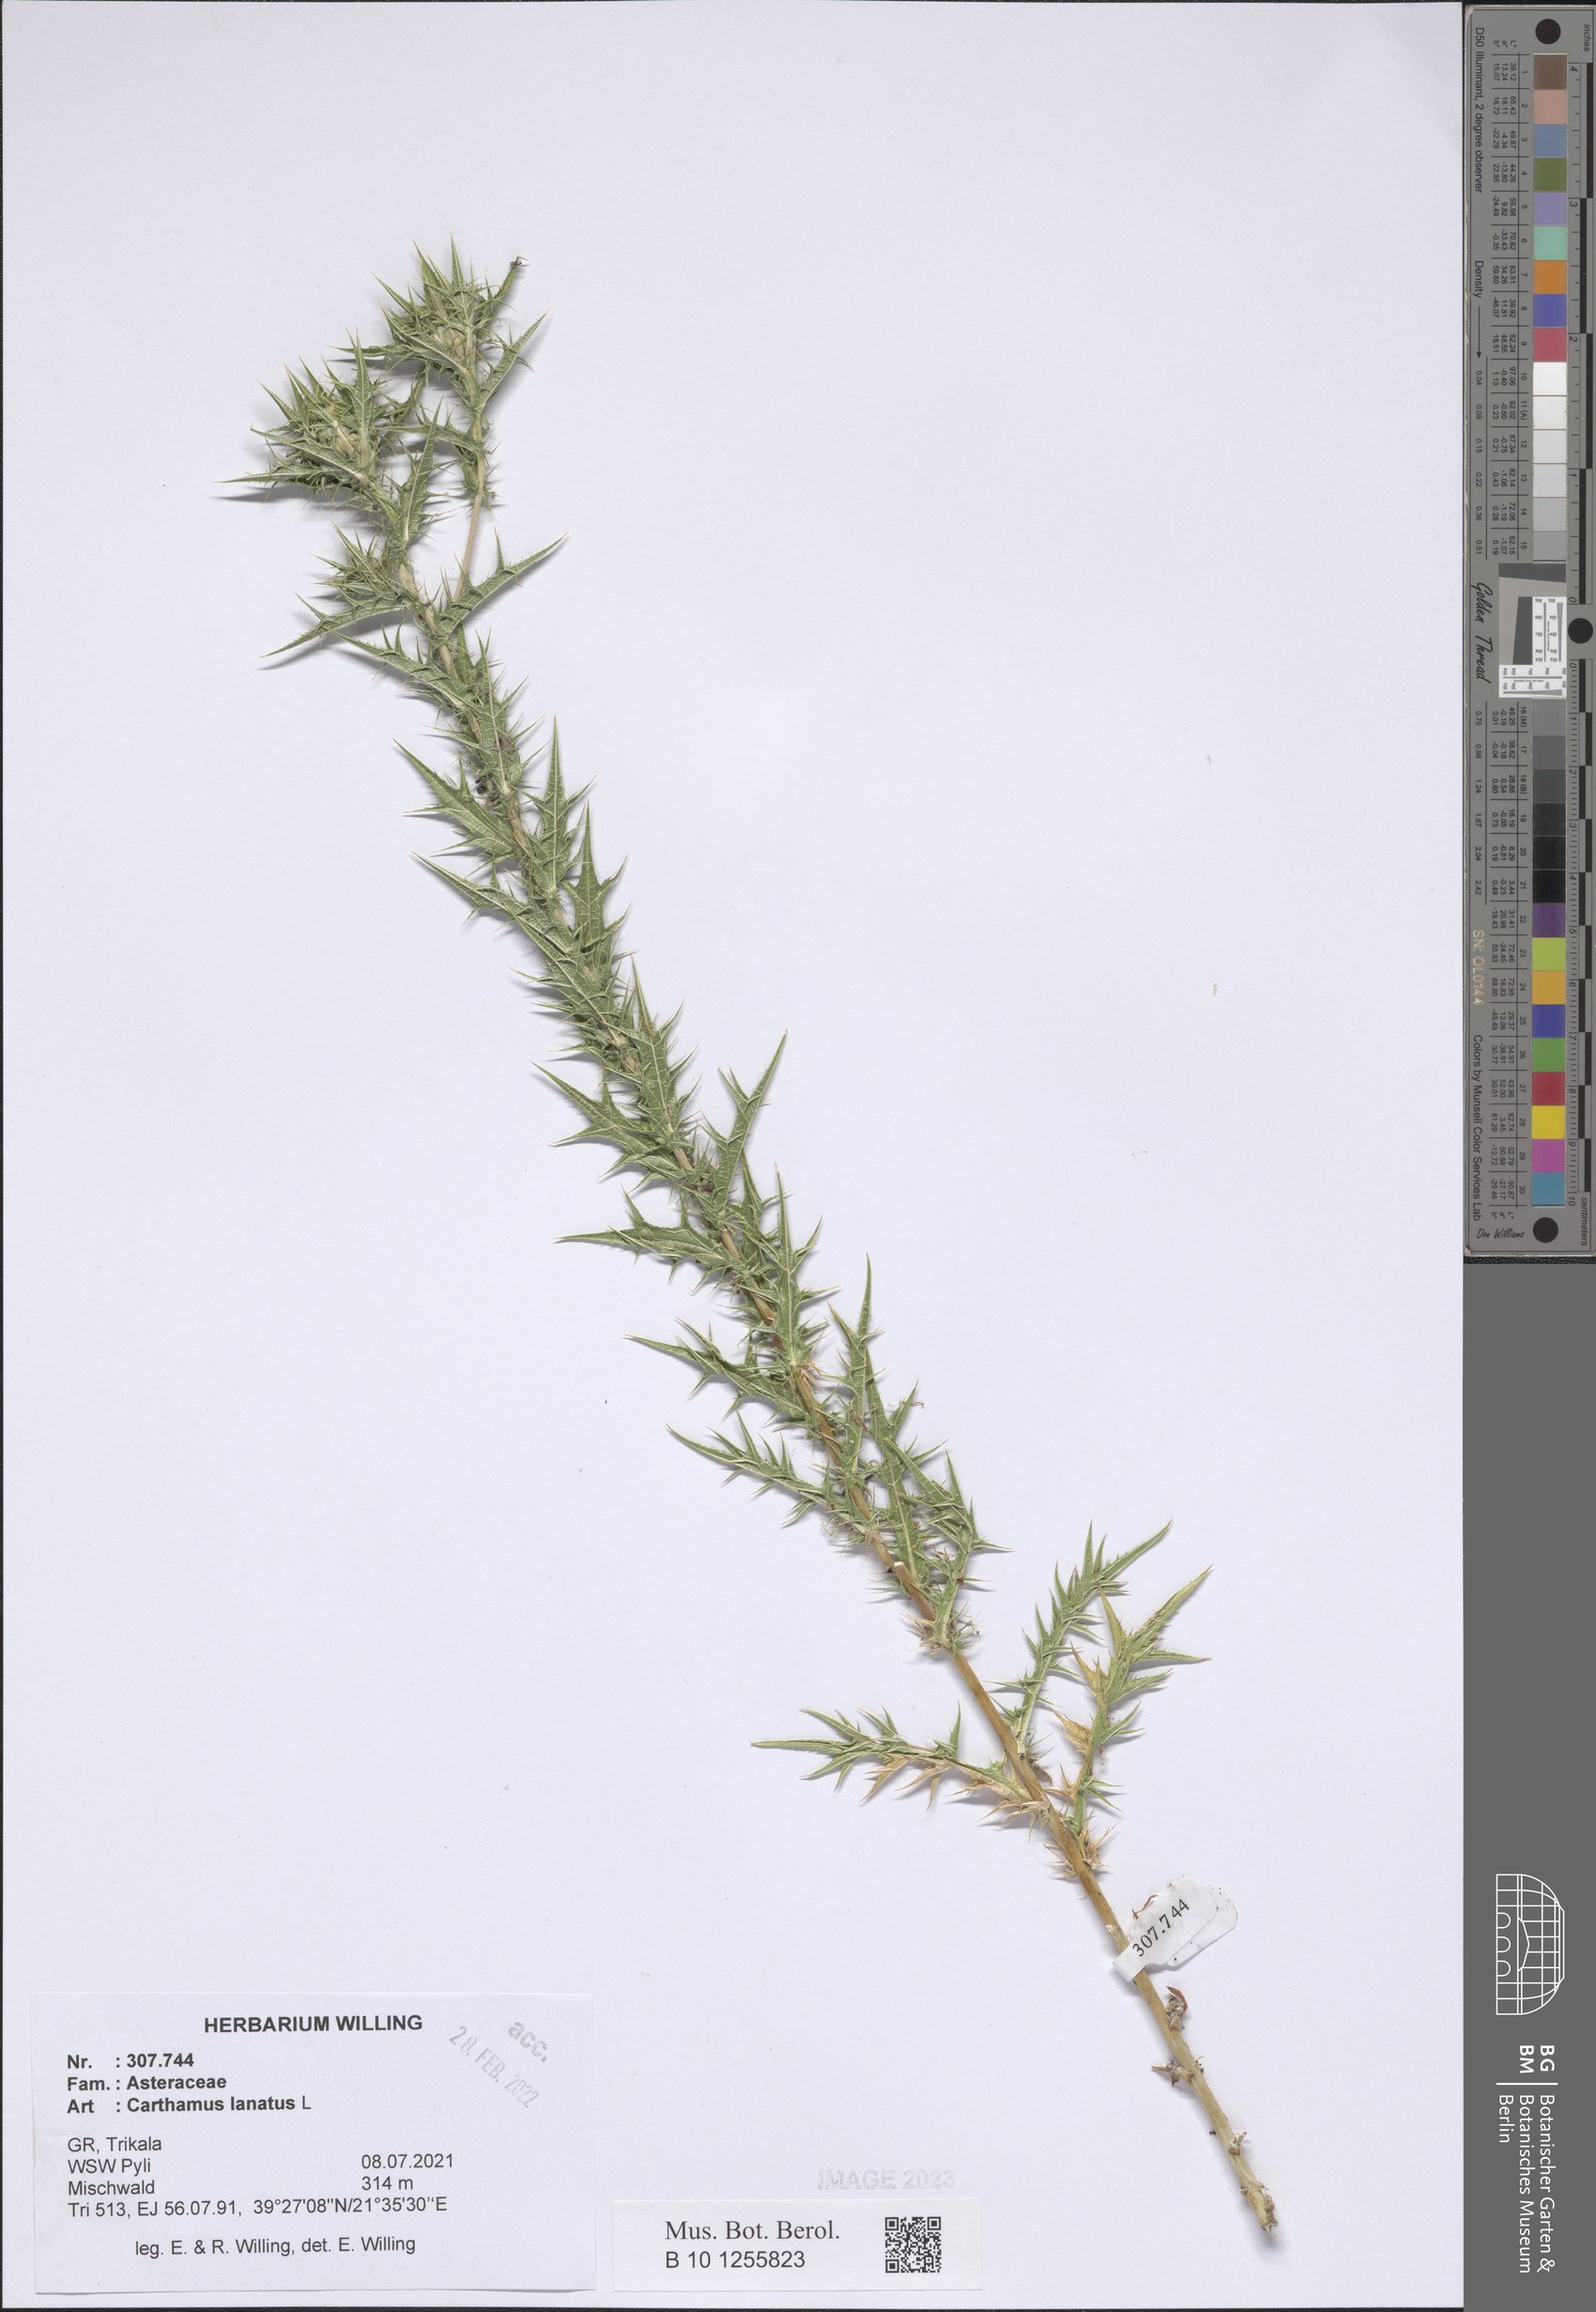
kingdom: Plantae
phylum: Tracheophyta
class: Magnoliopsida
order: Asterales
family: Asteraceae
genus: Carthamus
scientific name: Carthamus lanatus
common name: Downy safflower
